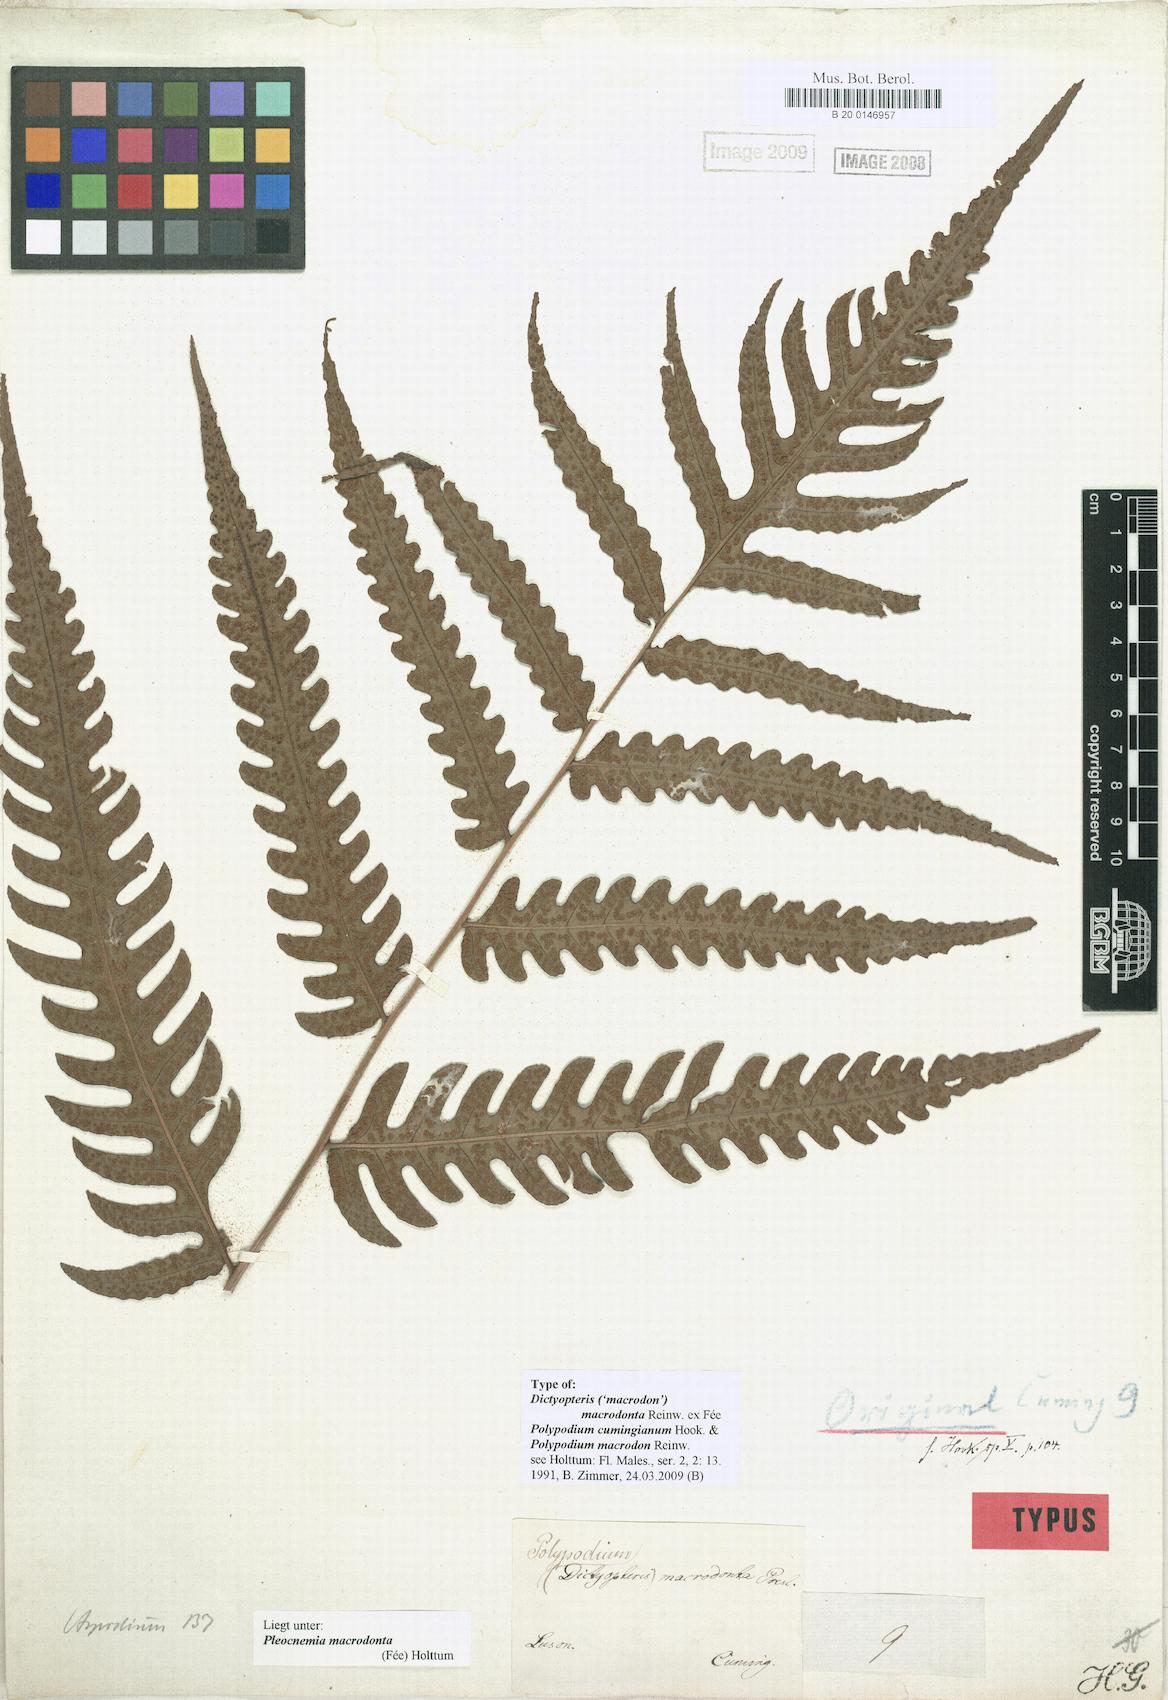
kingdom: Plantae
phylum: Tracheophyta
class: Polypodiopsida
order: Polypodiales
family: Dryopteridaceae
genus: Pleocnemia
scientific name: Pleocnemia macrodonta
